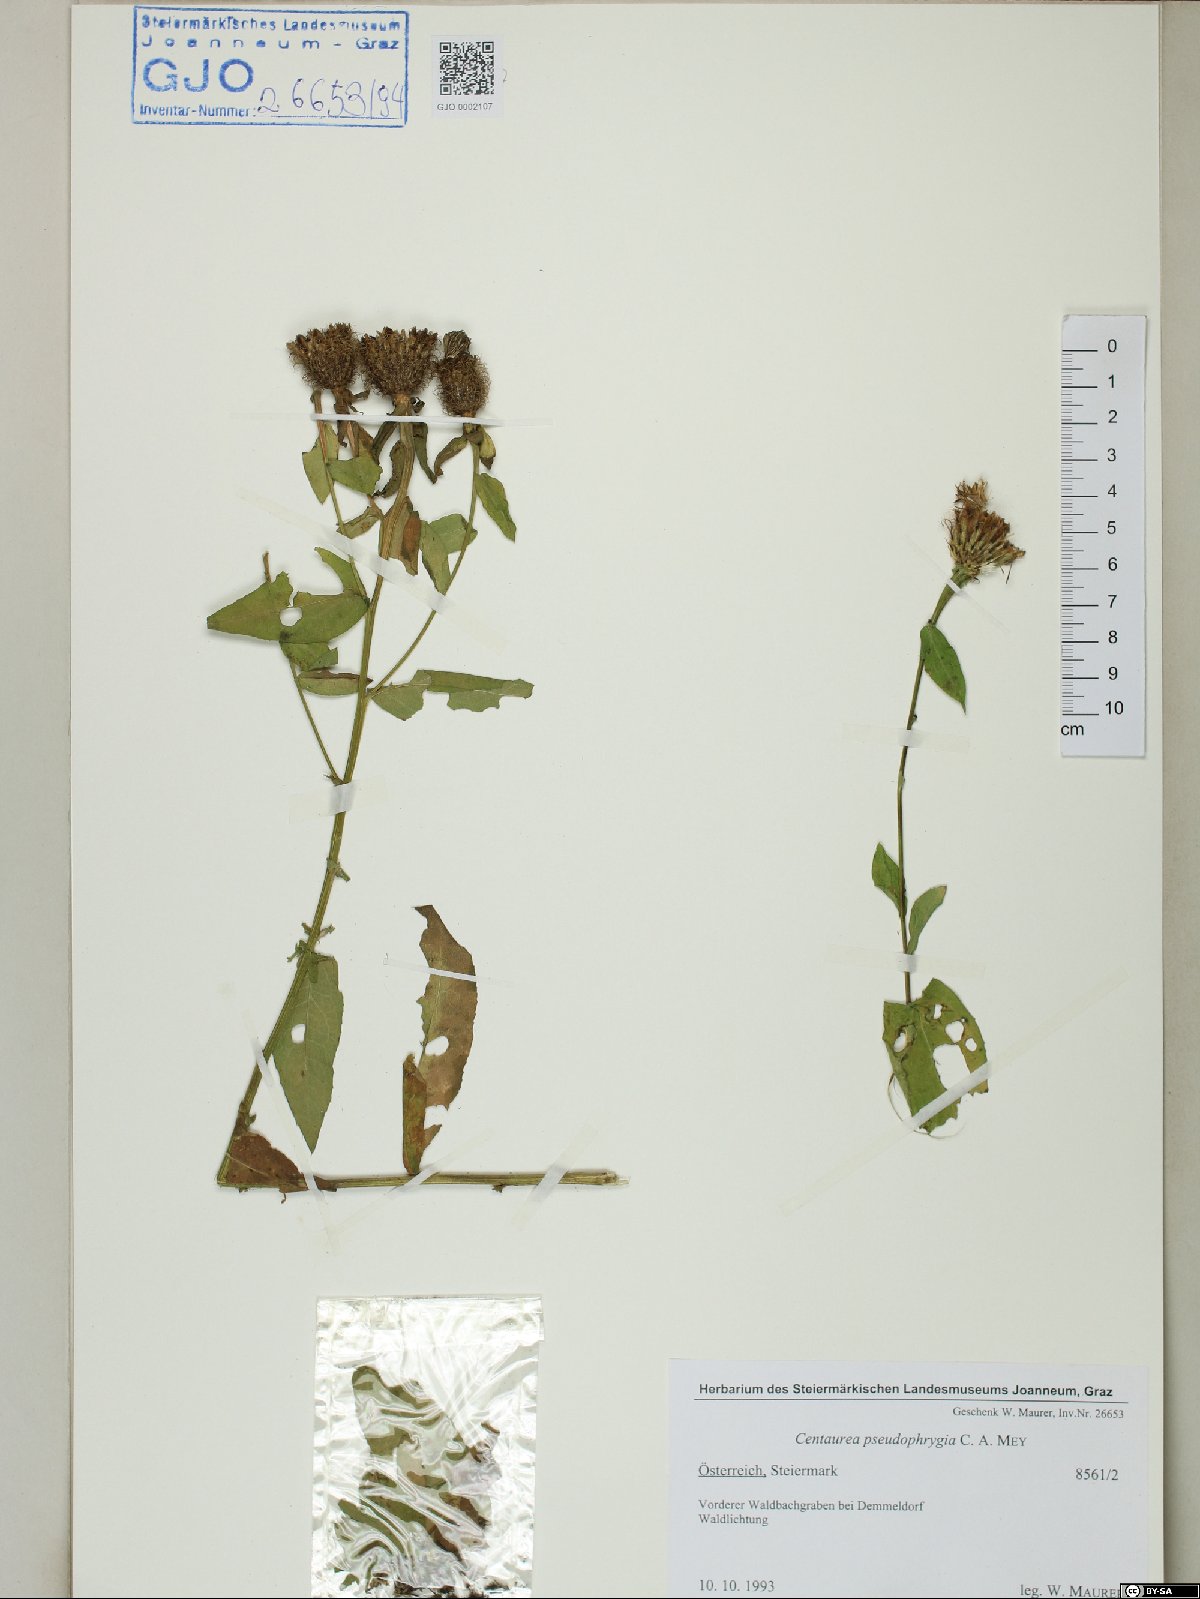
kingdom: Plantae
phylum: Tracheophyta
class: Magnoliopsida
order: Asterales
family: Asteraceae
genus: Centaurea
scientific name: Centaurea stenolepis
